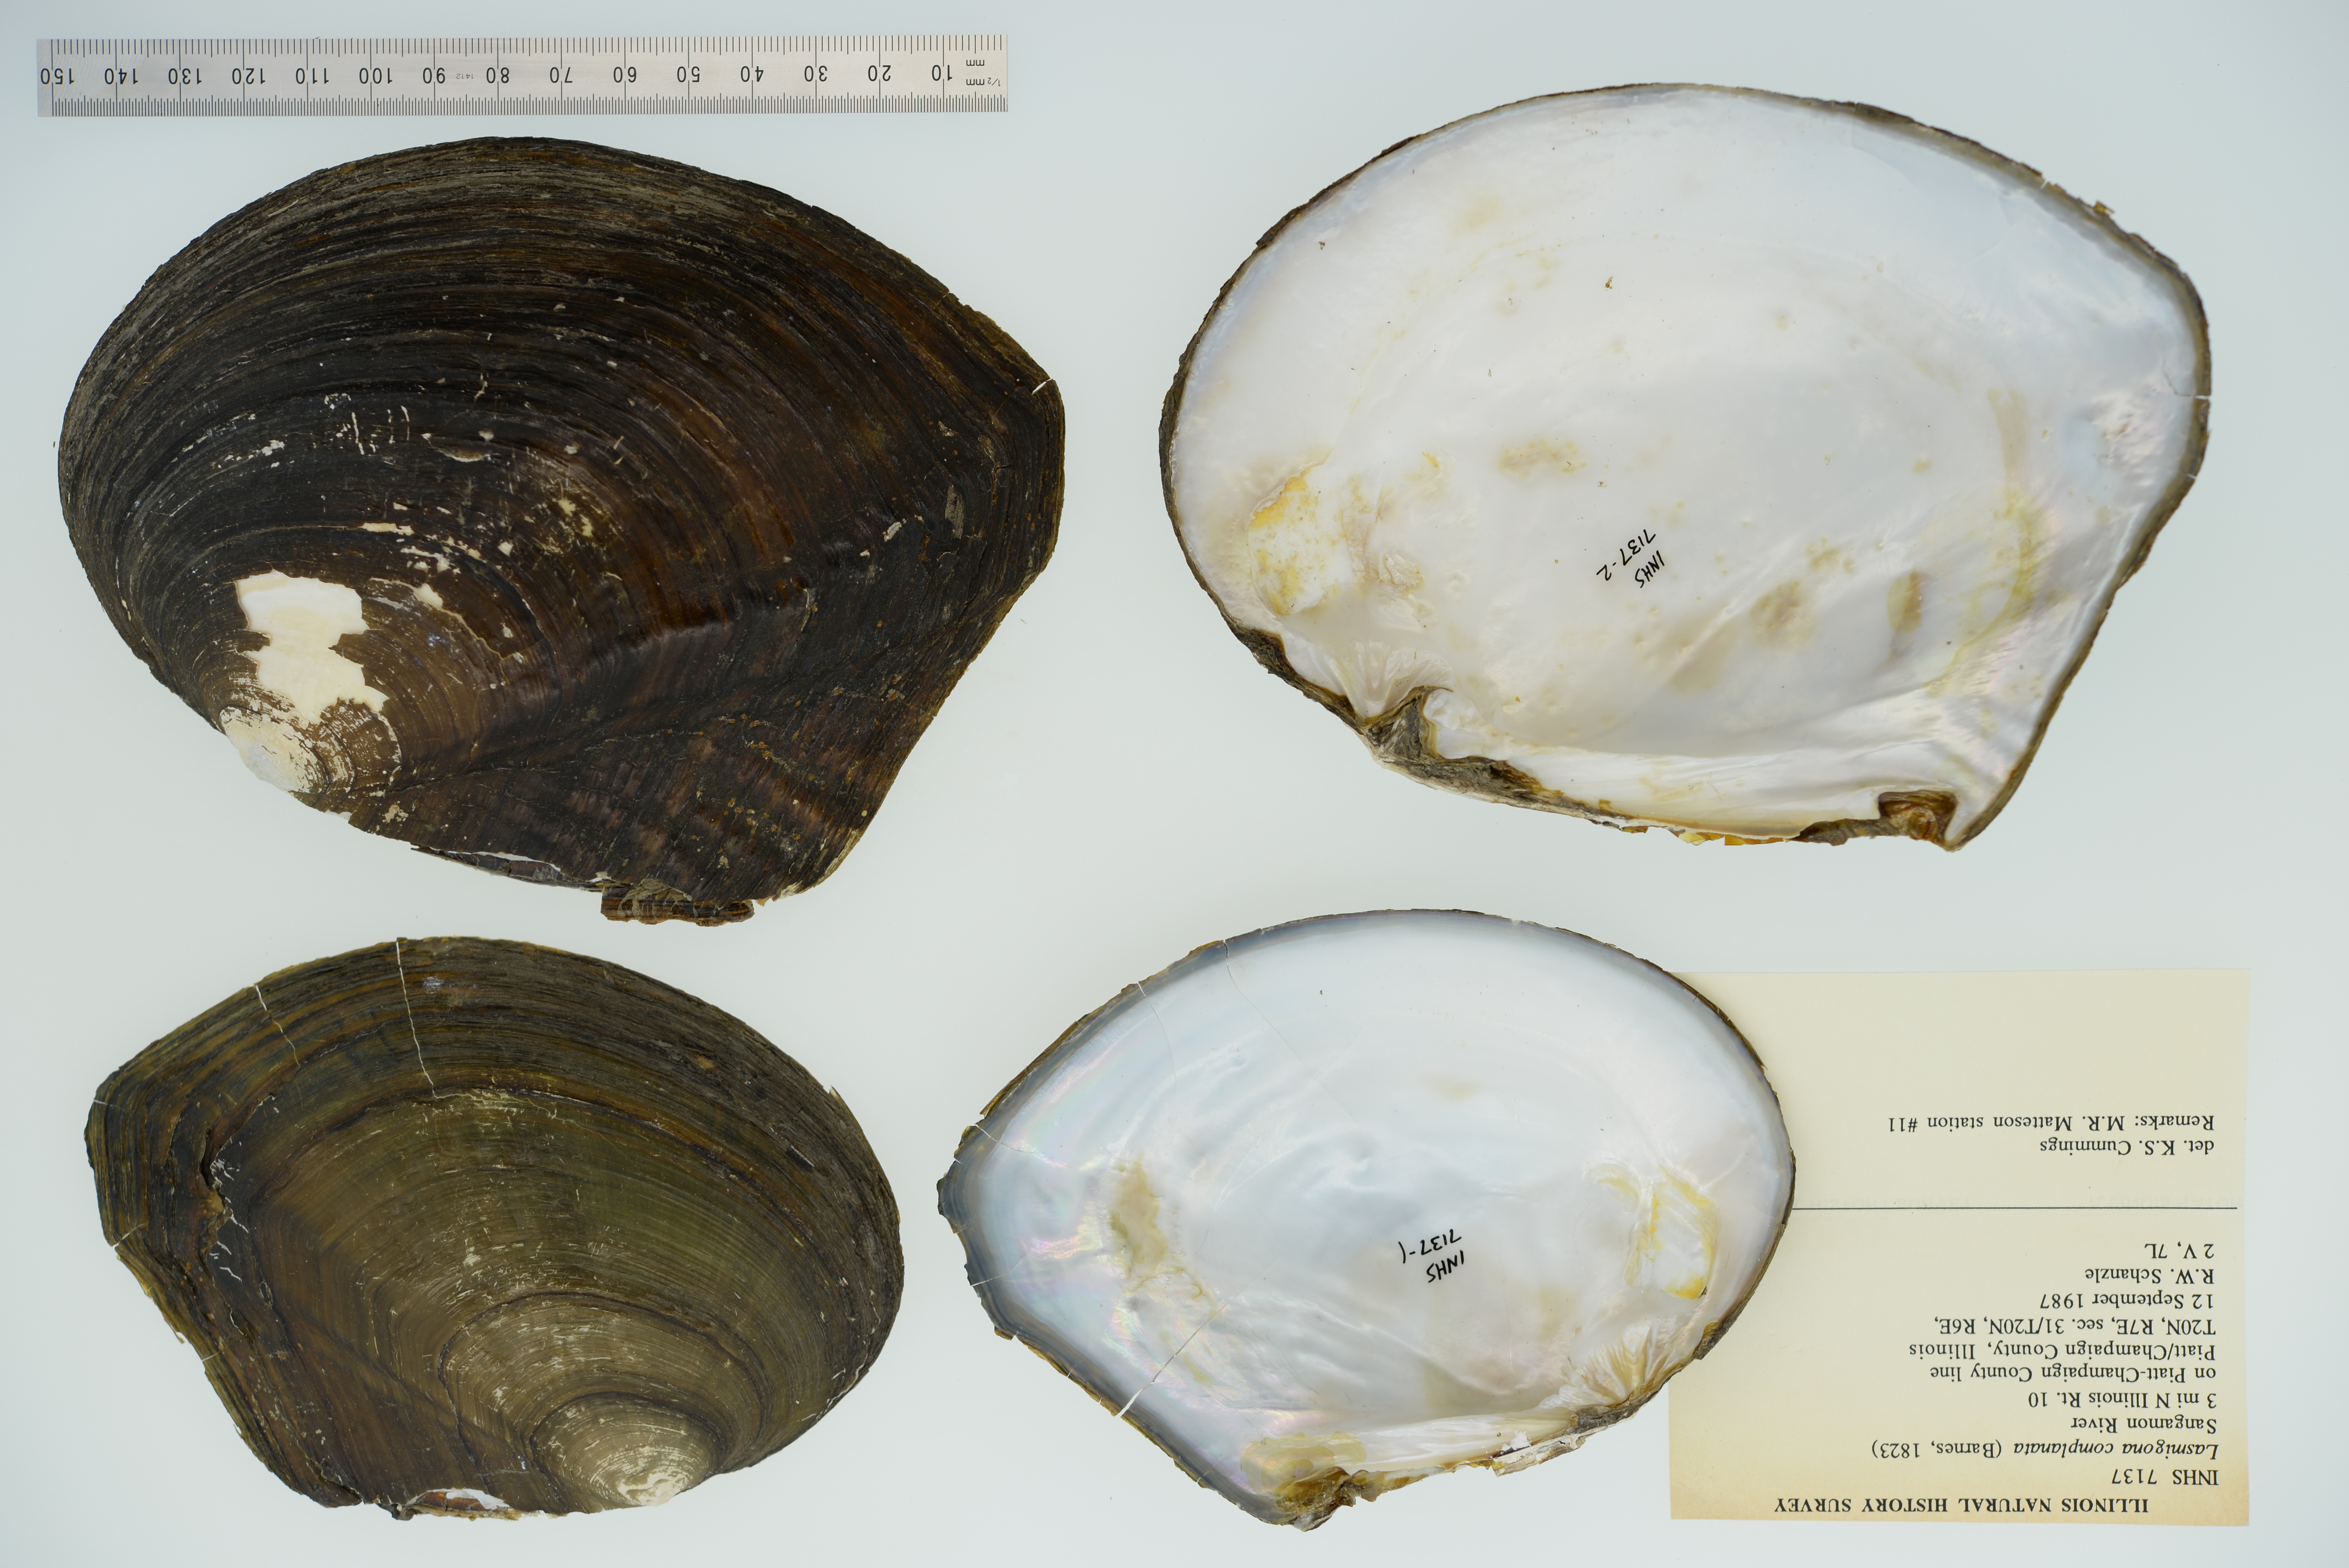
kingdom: Animalia
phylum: Mollusca
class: Bivalvia
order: Unionida
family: Unionidae
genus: Lasmigona
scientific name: Lasmigona complanata
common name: White heelsplitter
